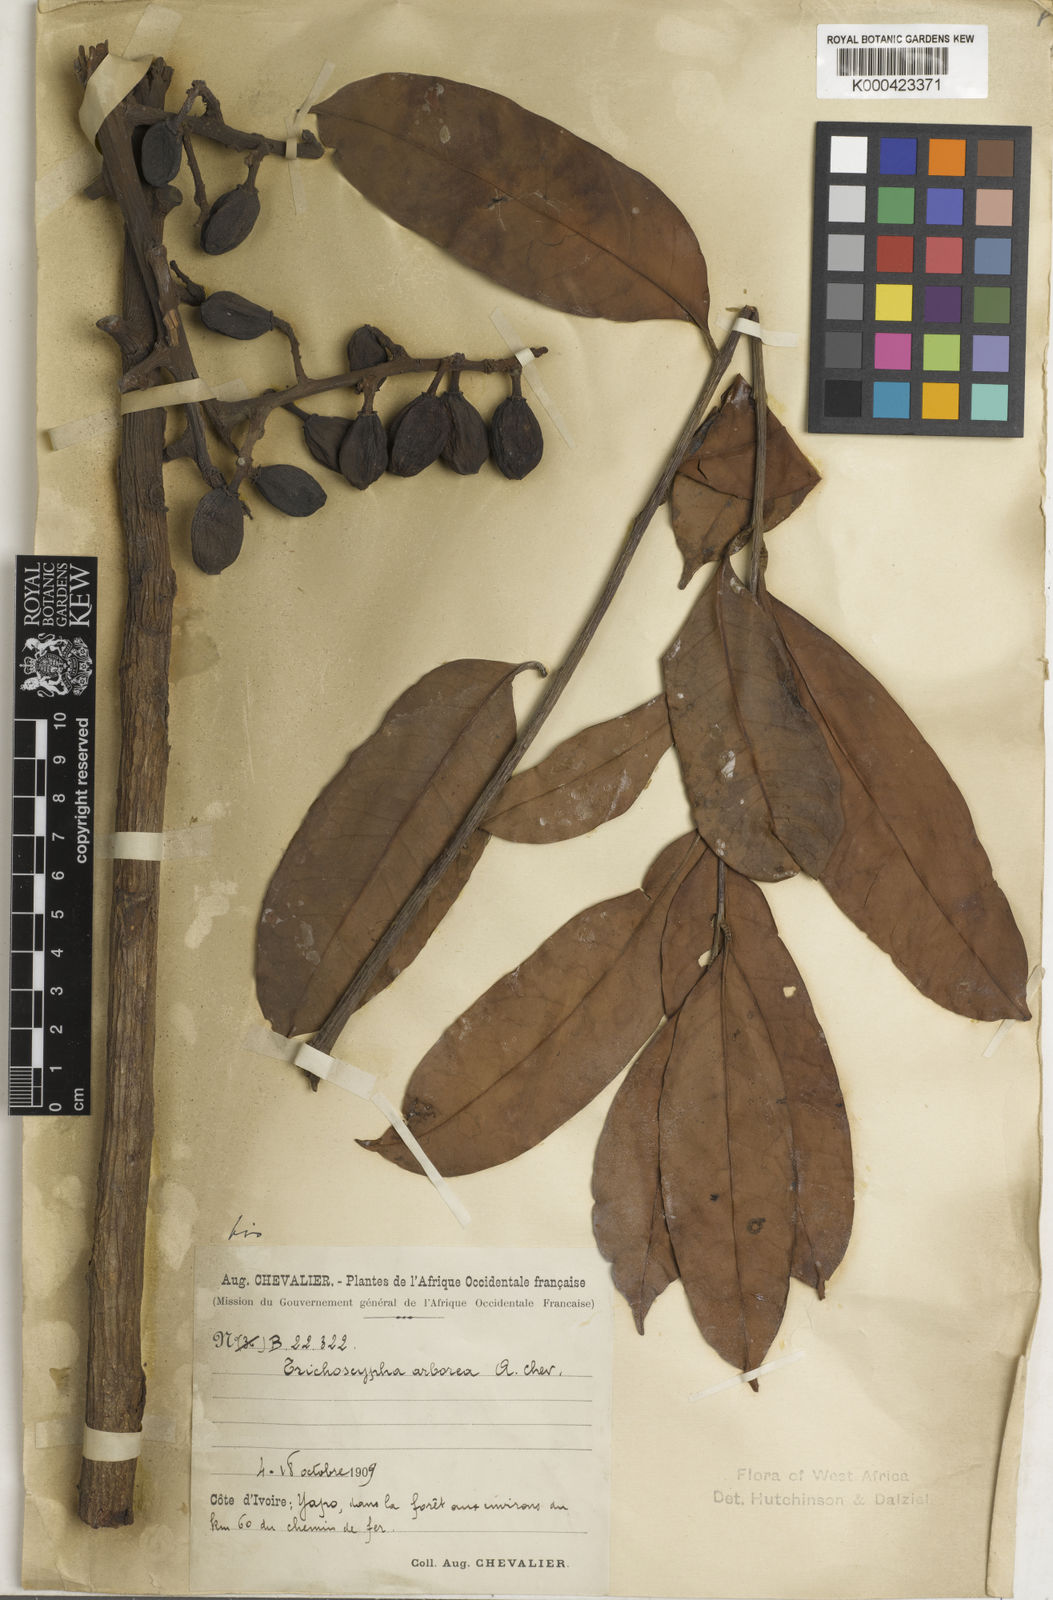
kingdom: Plantae
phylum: Tracheophyta
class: Magnoliopsida
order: Sapindales
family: Anacardiaceae
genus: Trichoscypha
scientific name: Trichoscypha arborea
